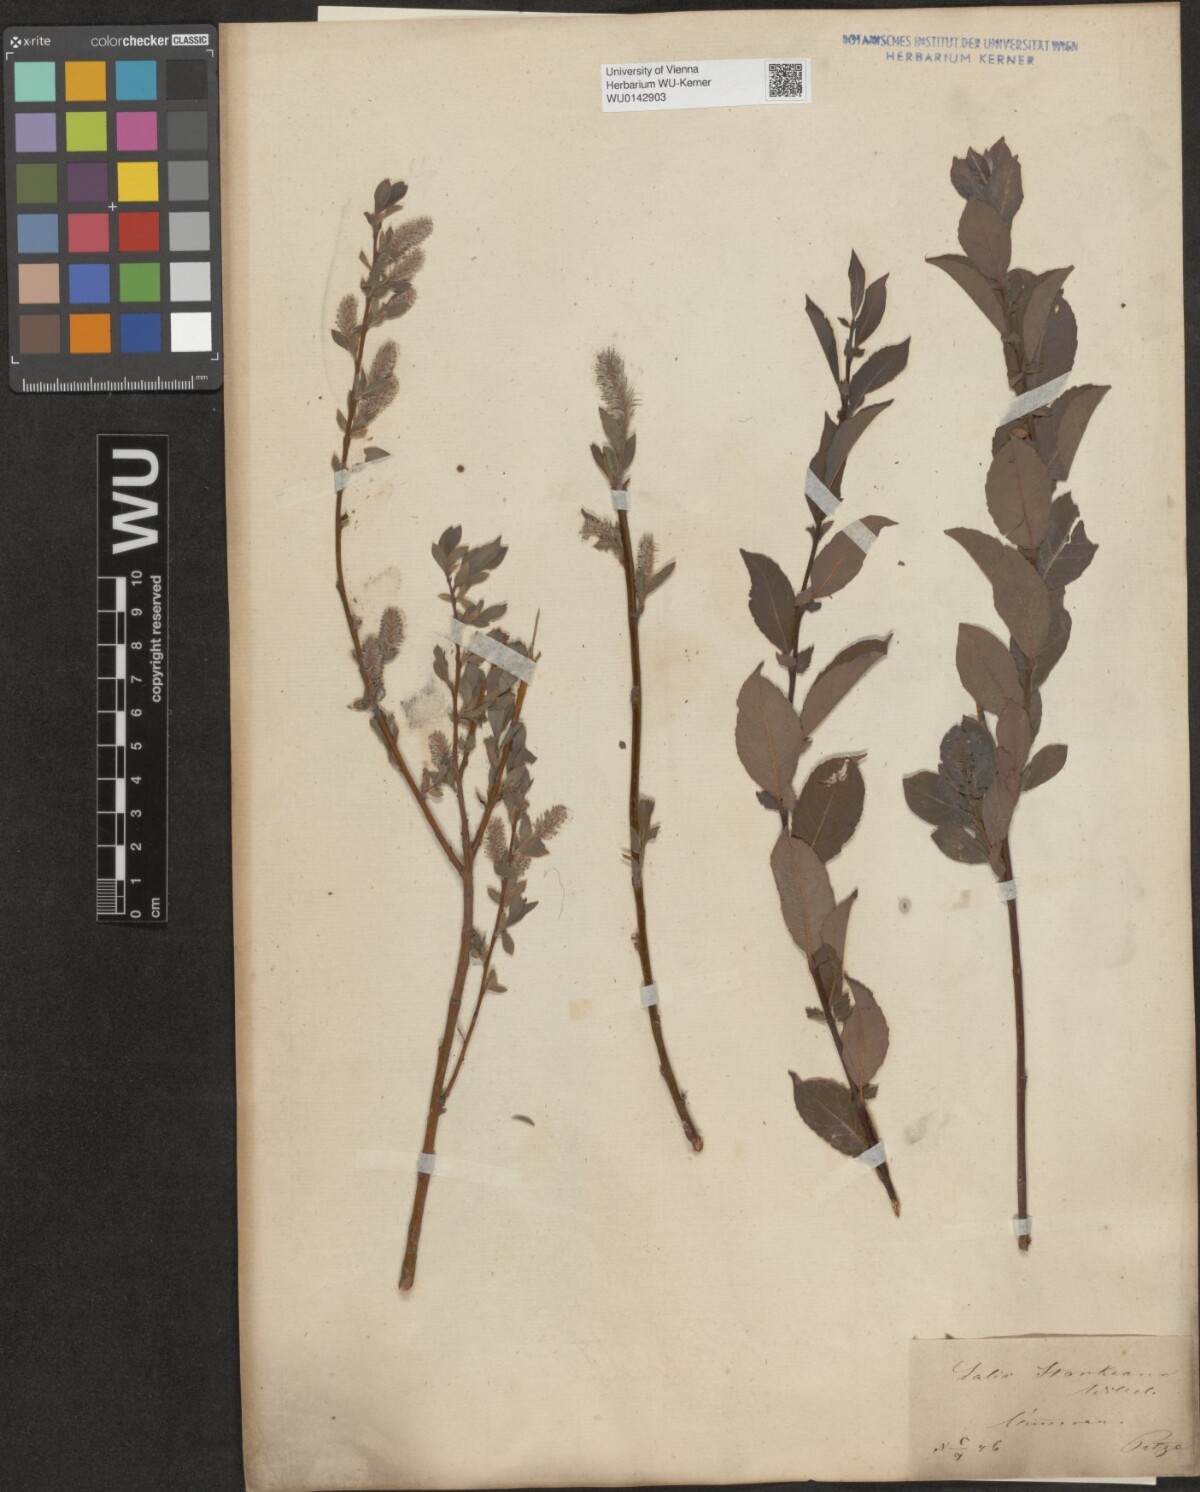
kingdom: Plantae
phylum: Tracheophyta
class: Magnoliopsida
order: Malpighiales
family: Salicaceae
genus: Salix
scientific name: Salix starkeana
